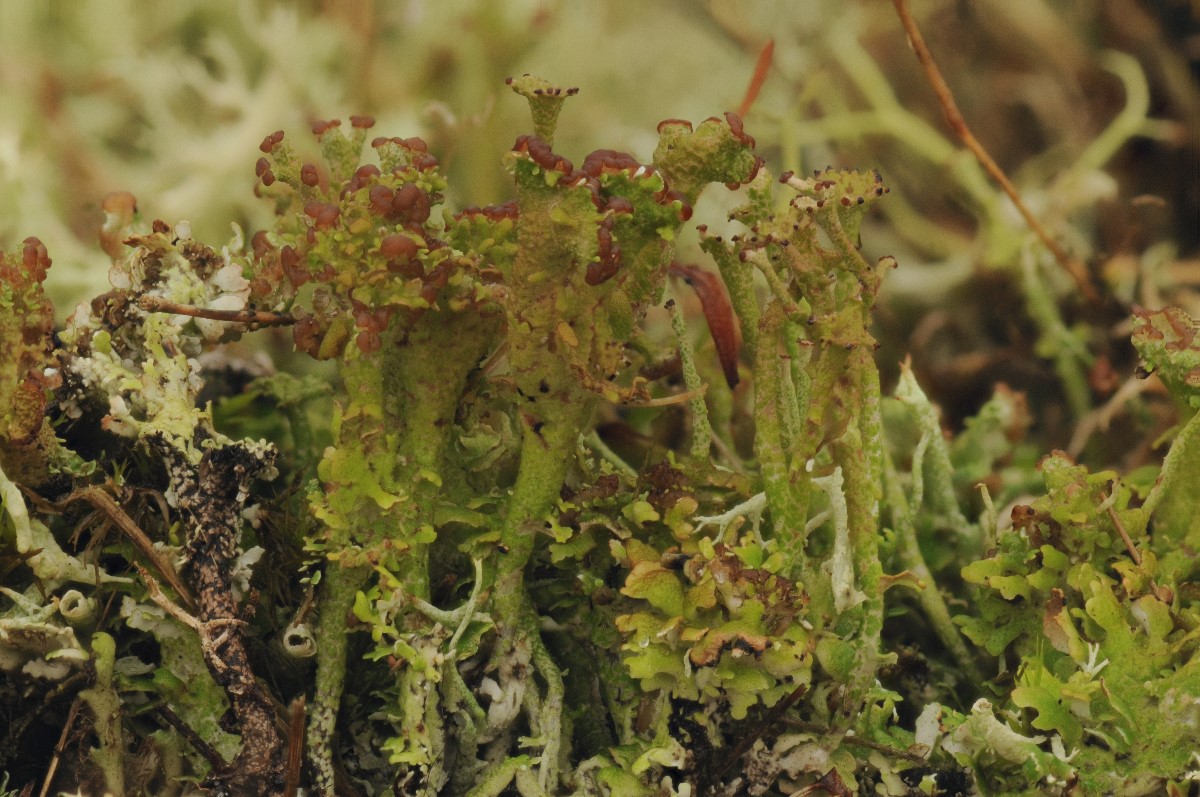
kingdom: Fungi
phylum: Ascomycota
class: Lecanoromycetes
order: Lecanorales
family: Cladoniaceae
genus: Cladonia
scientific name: Cladonia phyllophora
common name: sortfodet bægerlav
